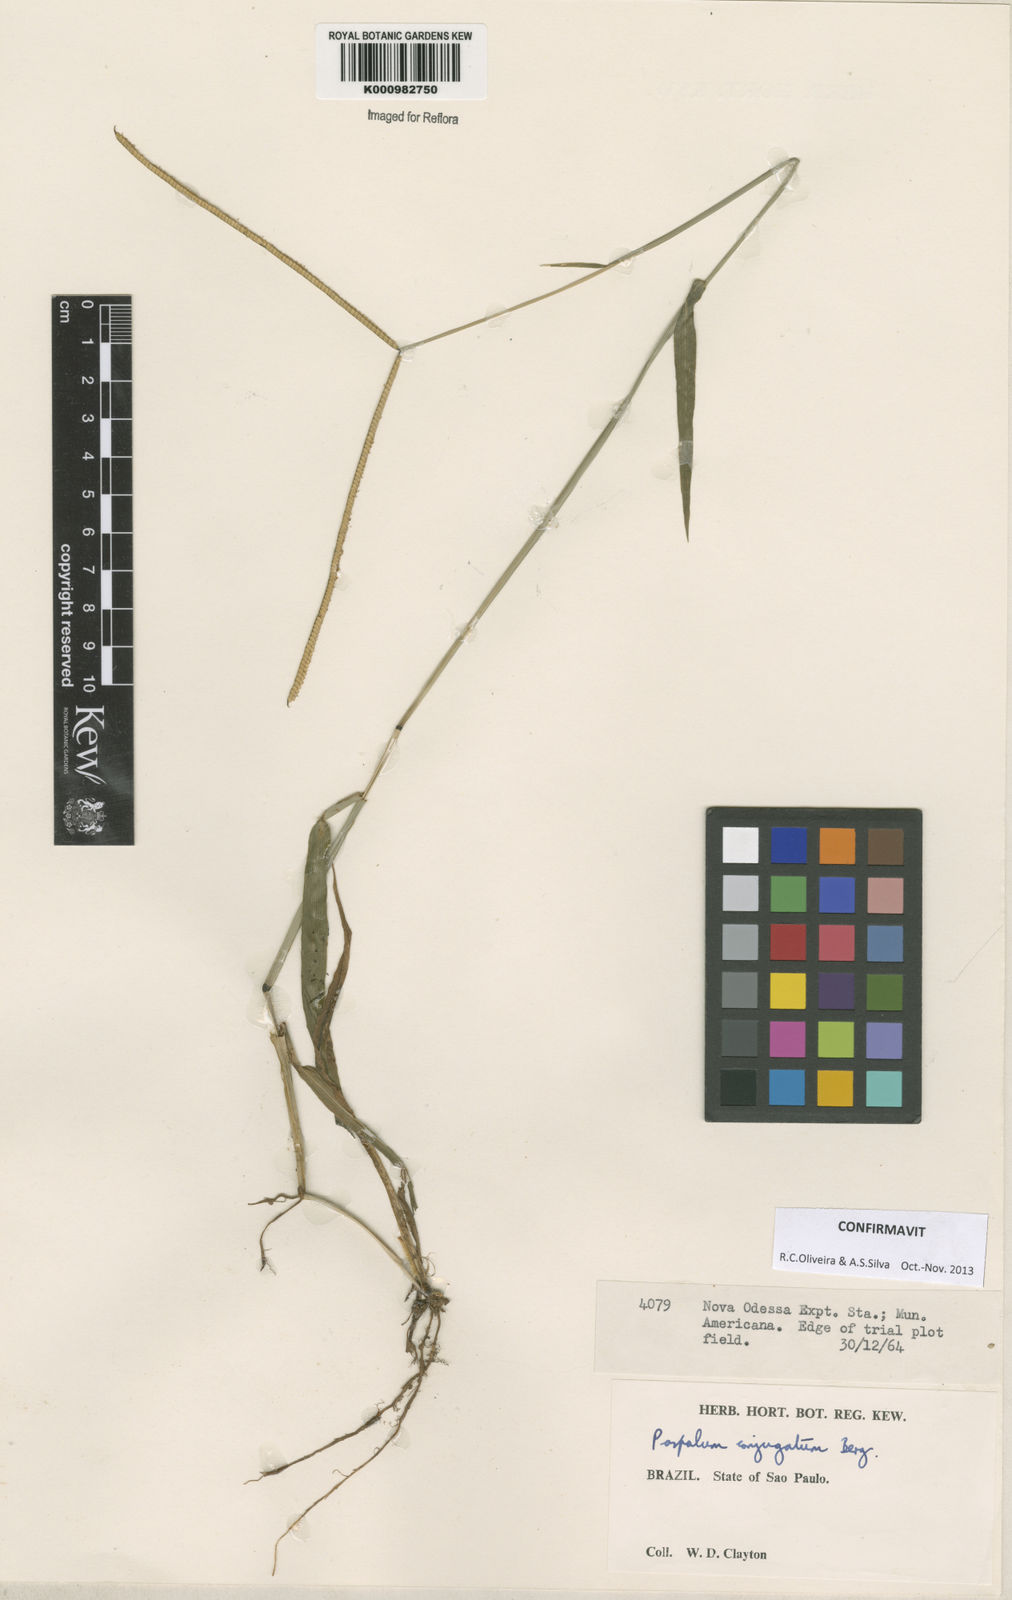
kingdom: Plantae
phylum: Tracheophyta
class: Liliopsida
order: Poales
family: Poaceae
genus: Paspalum
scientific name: Paspalum conjugatum
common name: Hilograss
